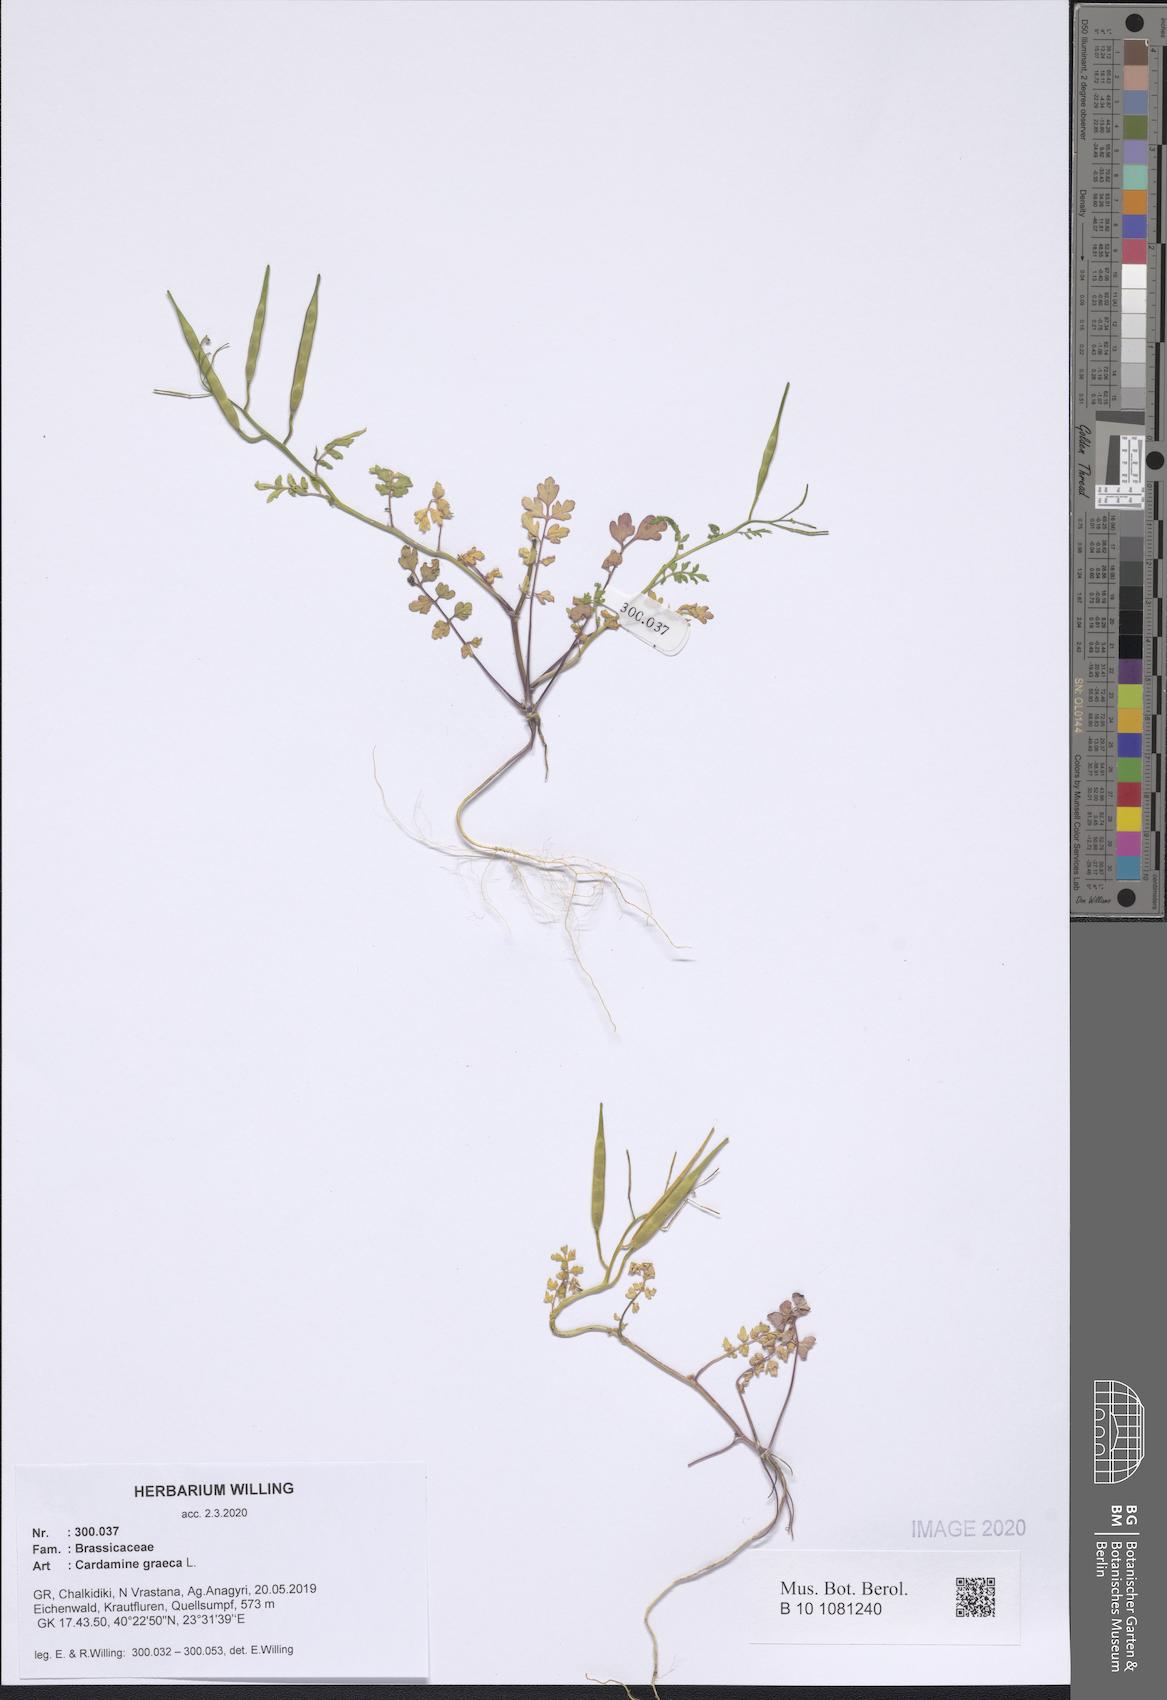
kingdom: Plantae
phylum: Tracheophyta
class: Magnoliopsida
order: Brassicales
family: Brassicaceae
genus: Cardamine
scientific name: Cardamine graeca
